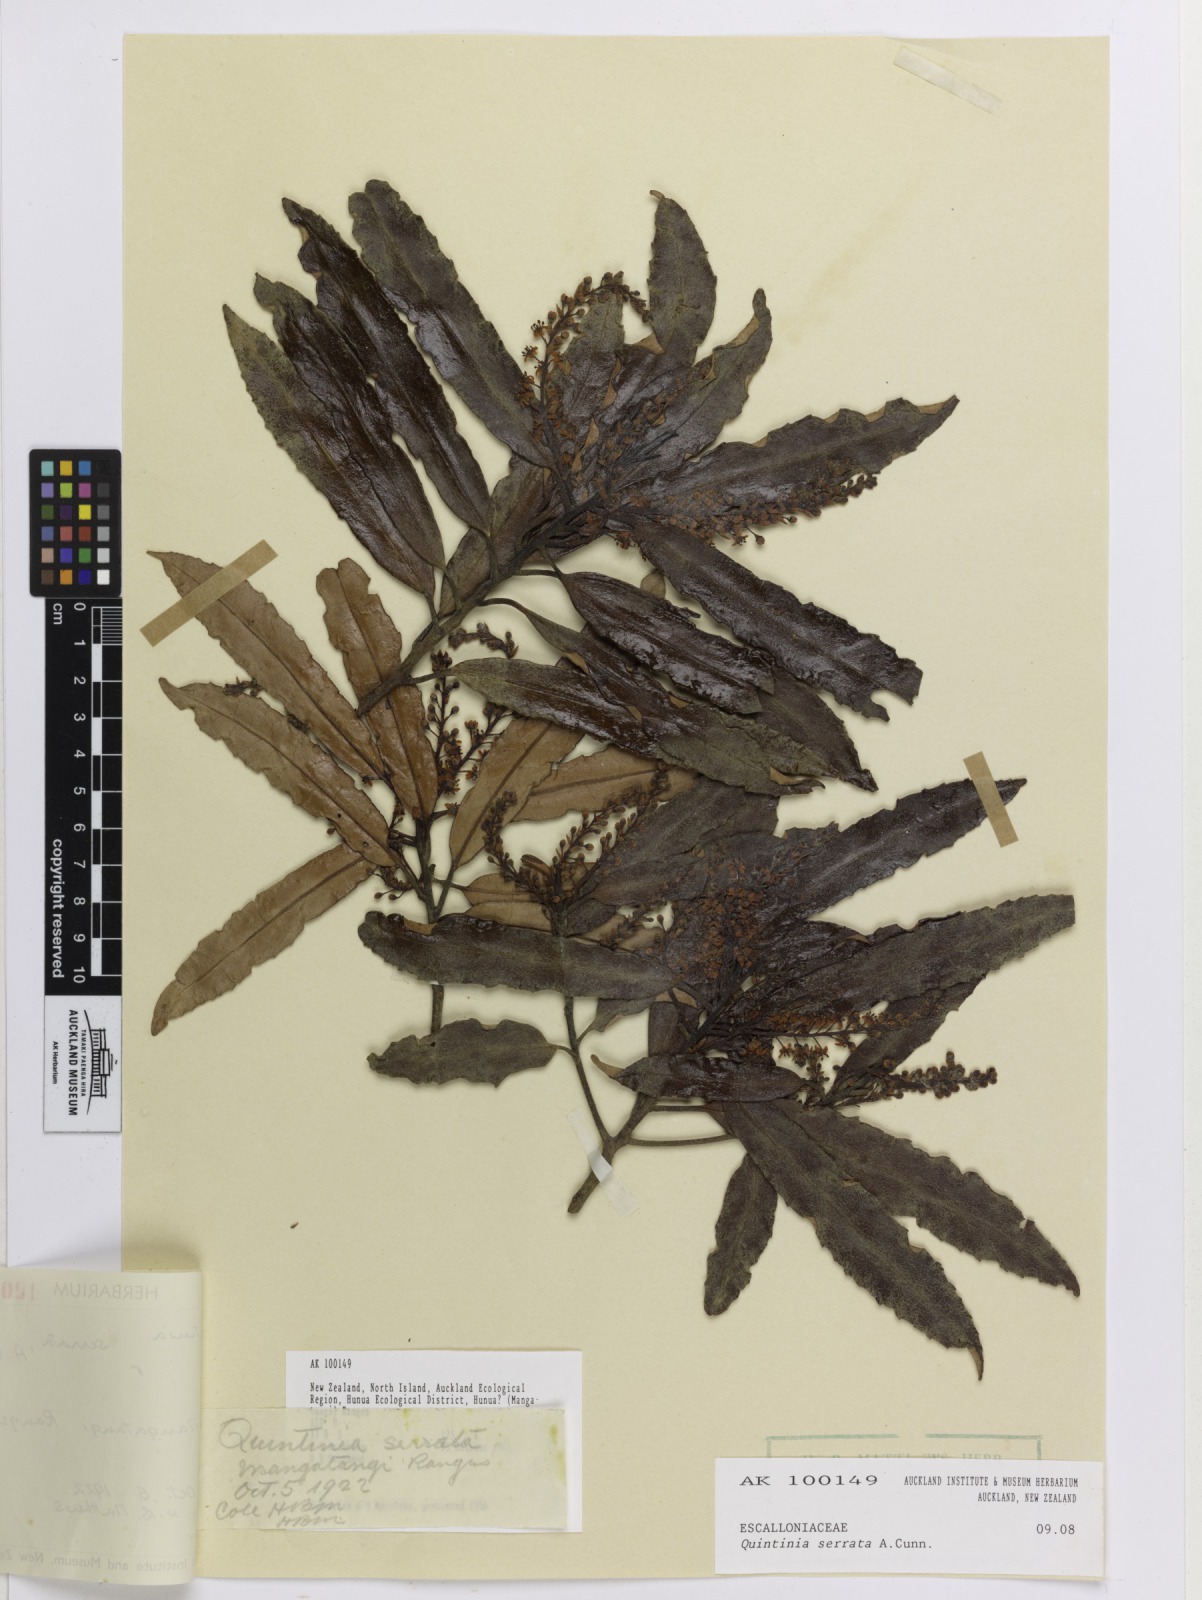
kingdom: Plantae
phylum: Tracheophyta
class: Magnoliopsida
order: Paracryphiales
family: Paracryphiaceae
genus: Quintinia
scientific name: Quintinia serrata
